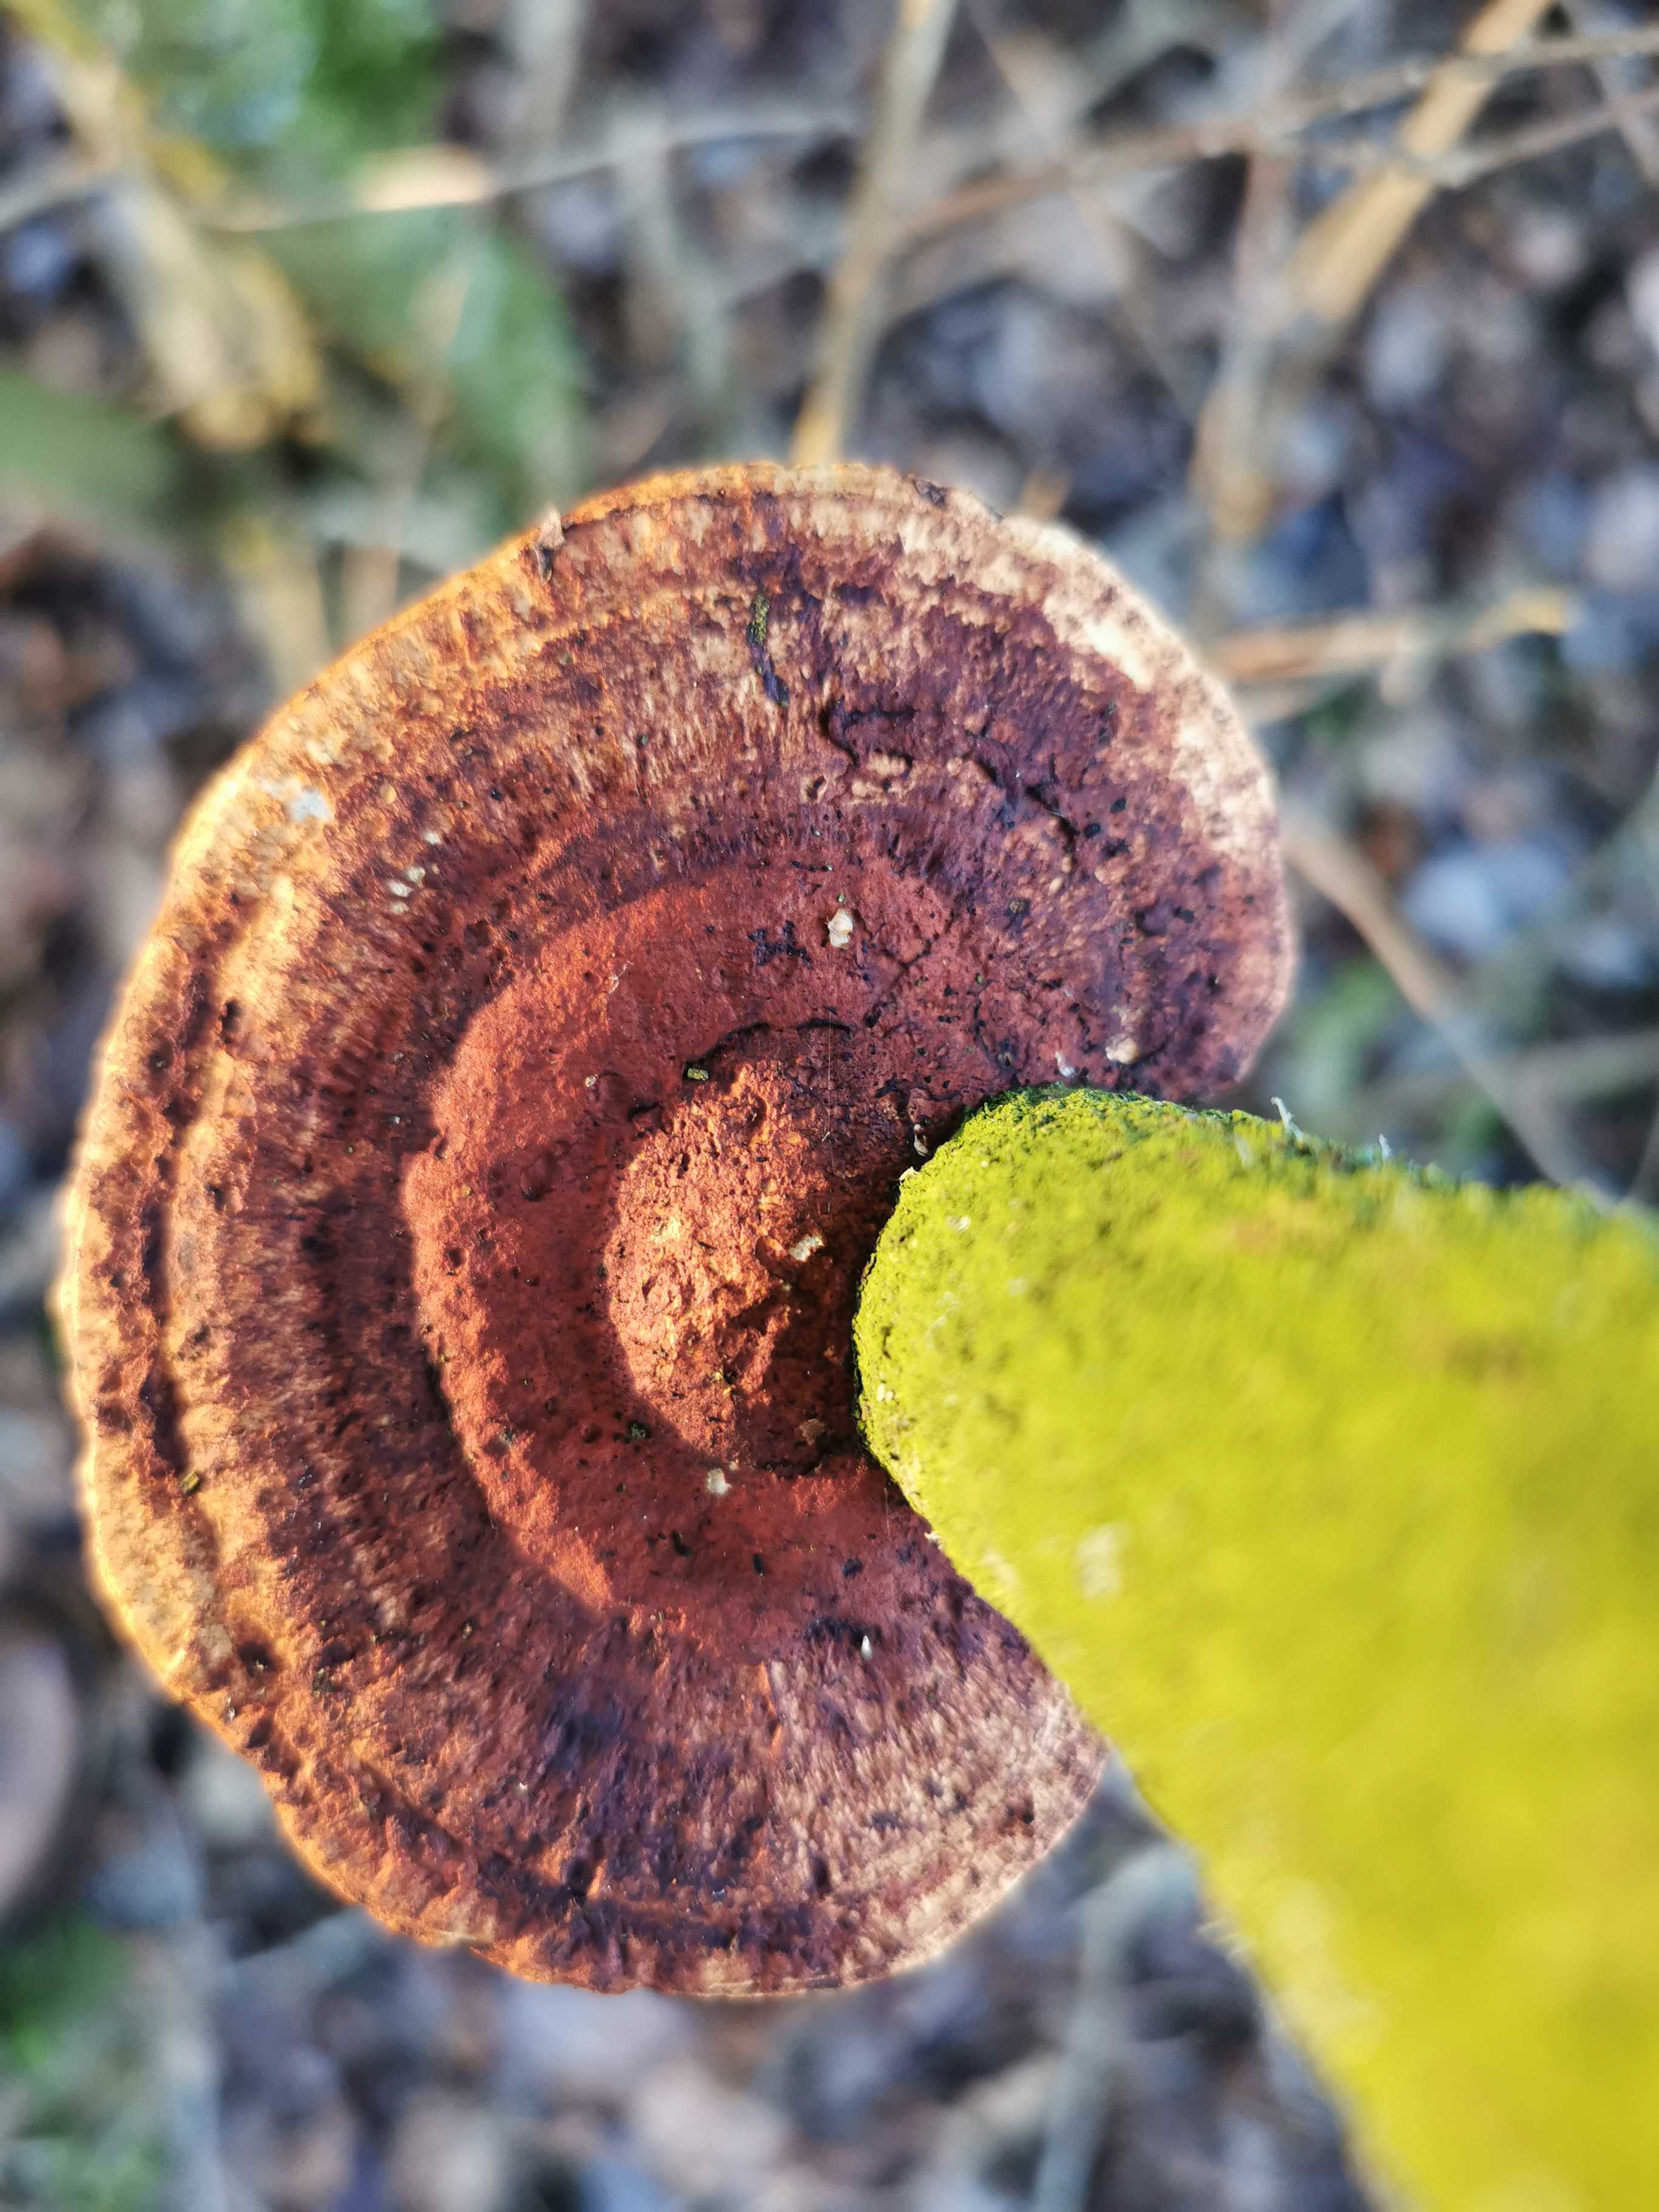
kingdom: Fungi
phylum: Basidiomycota
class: Agaricomycetes
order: Polyporales
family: Polyporaceae
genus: Daedaleopsis
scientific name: Daedaleopsis confragosa
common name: rødmende læderporesvamp
